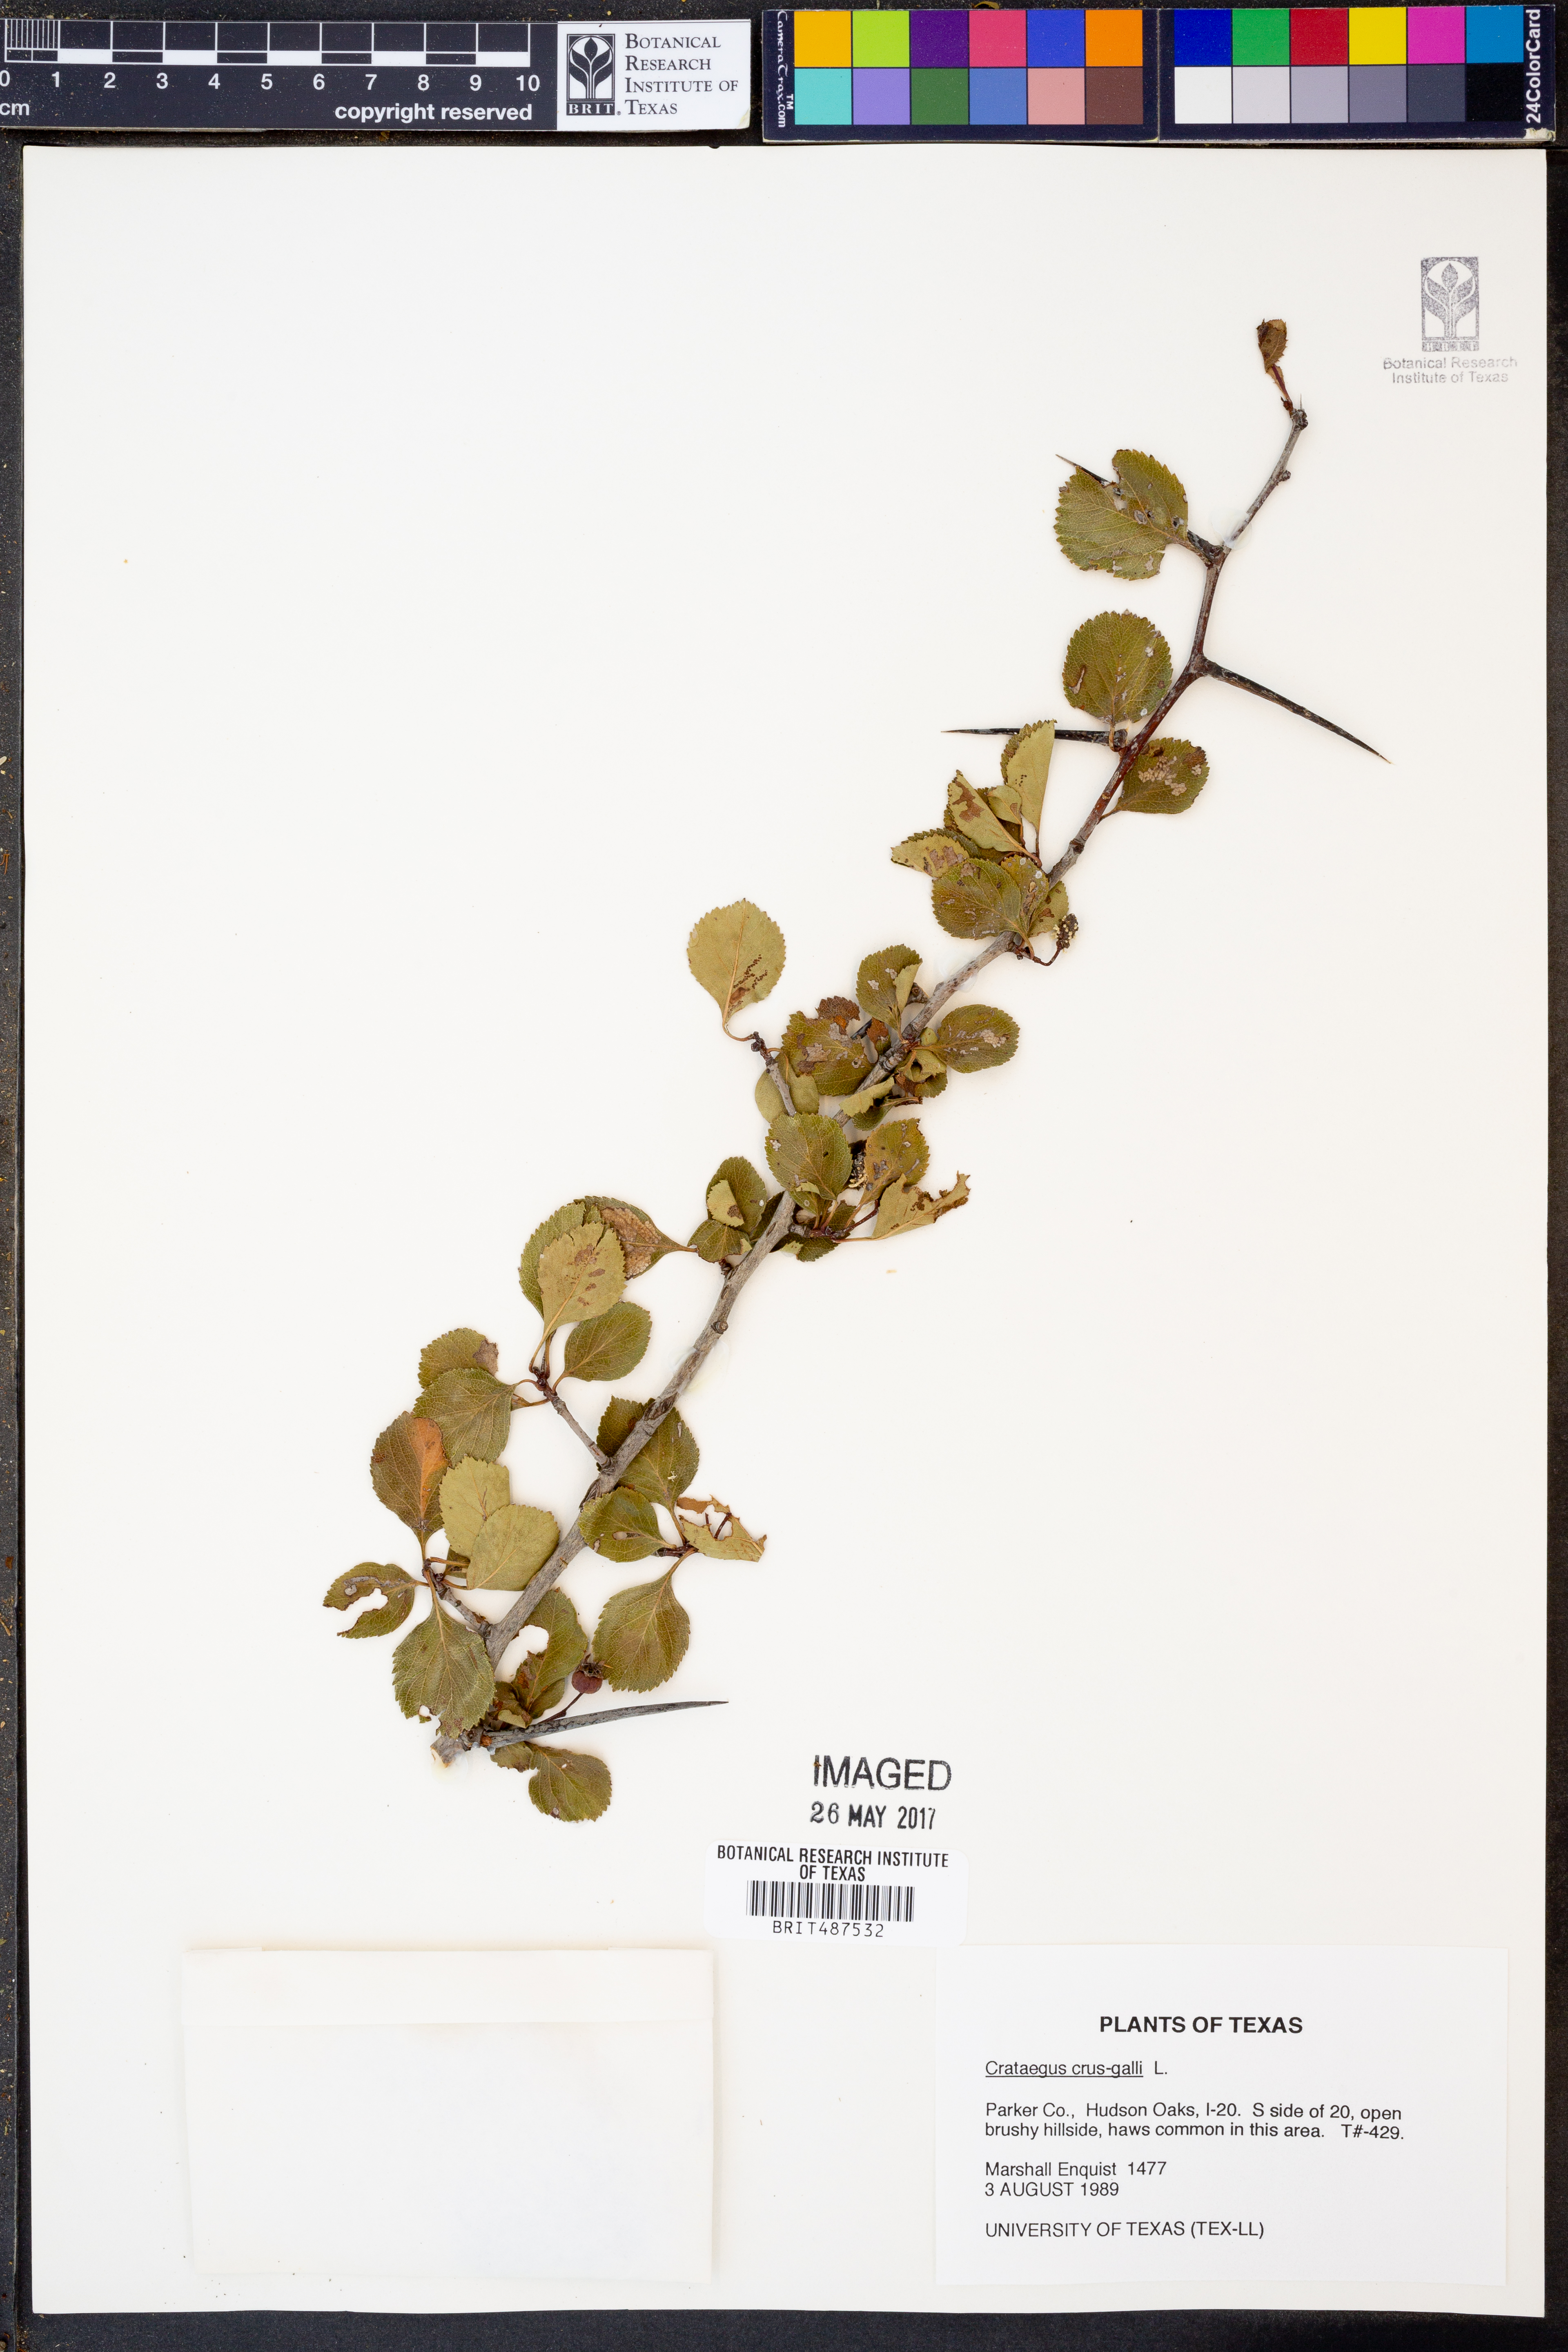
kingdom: Plantae
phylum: Tracheophyta
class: Magnoliopsida
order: Rosales
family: Rosaceae
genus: Crataegus
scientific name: Crataegus crus-galli
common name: Cockspurthorn
